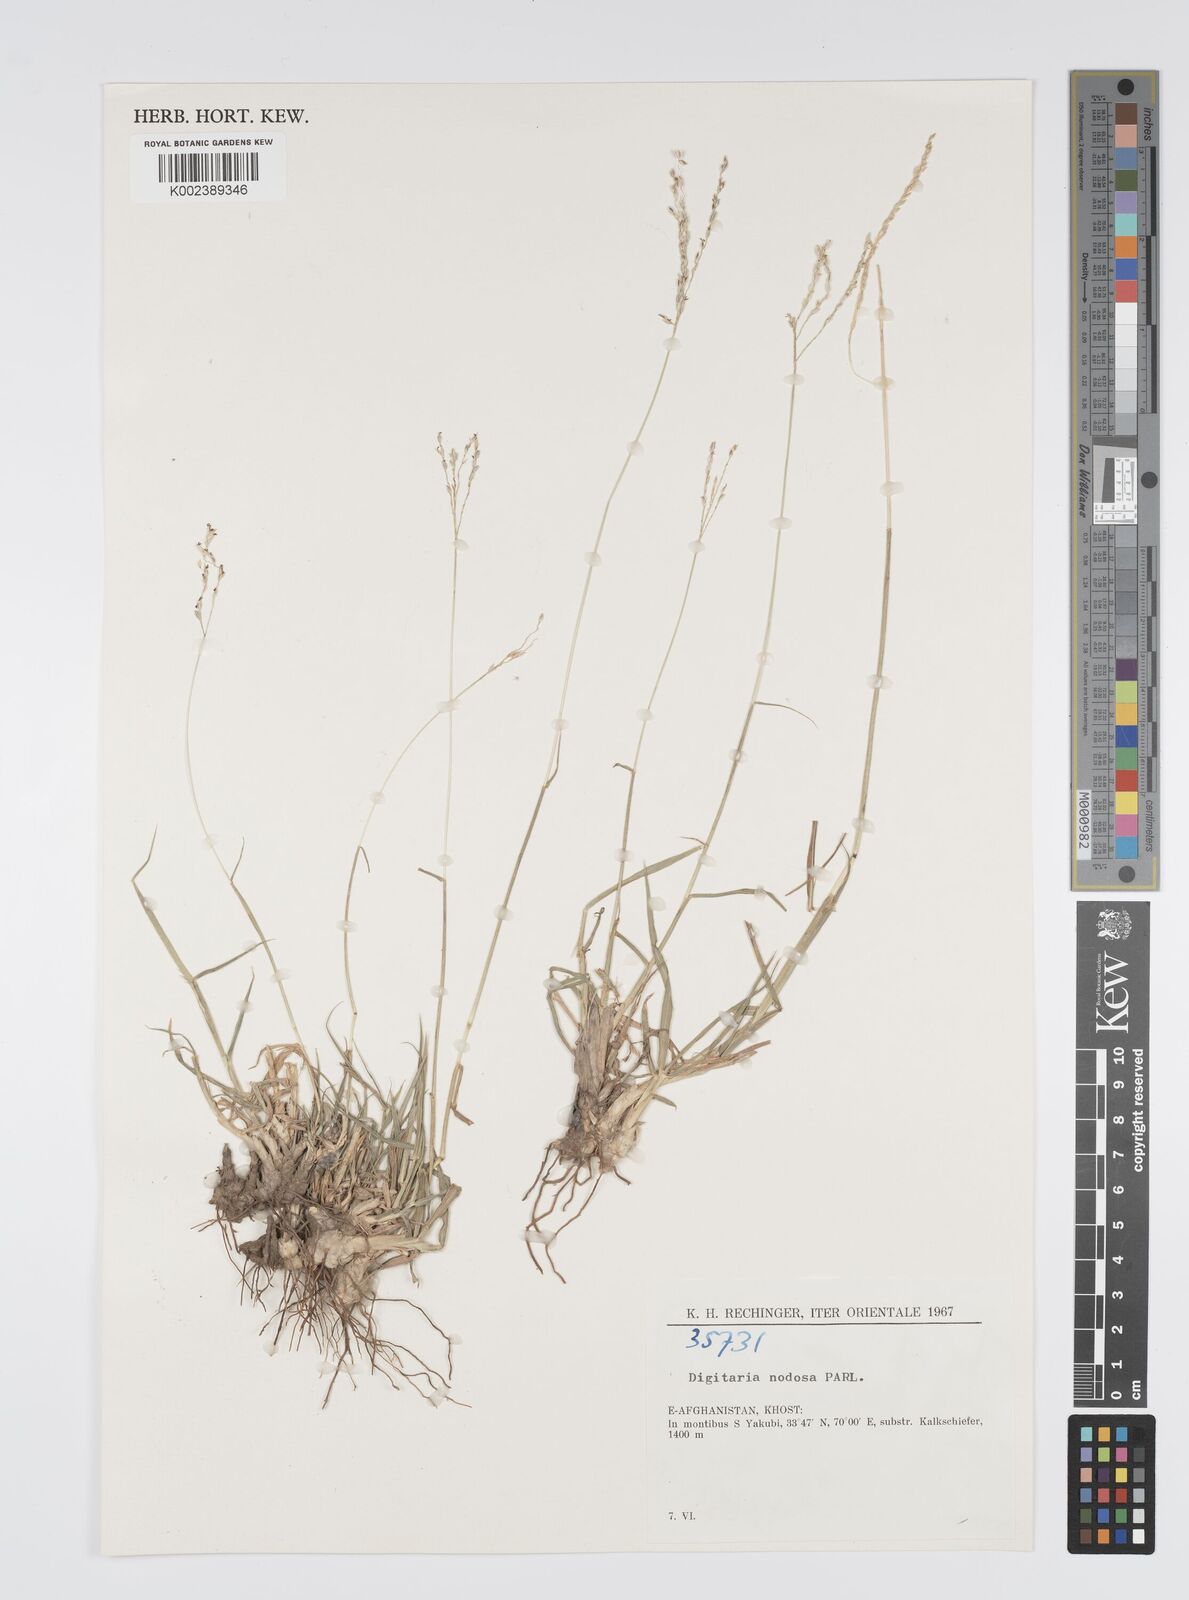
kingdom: Plantae
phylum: Tracheophyta
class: Liliopsida
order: Poales
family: Poaceae
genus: Digitaria
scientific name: Digitaria nodosa
